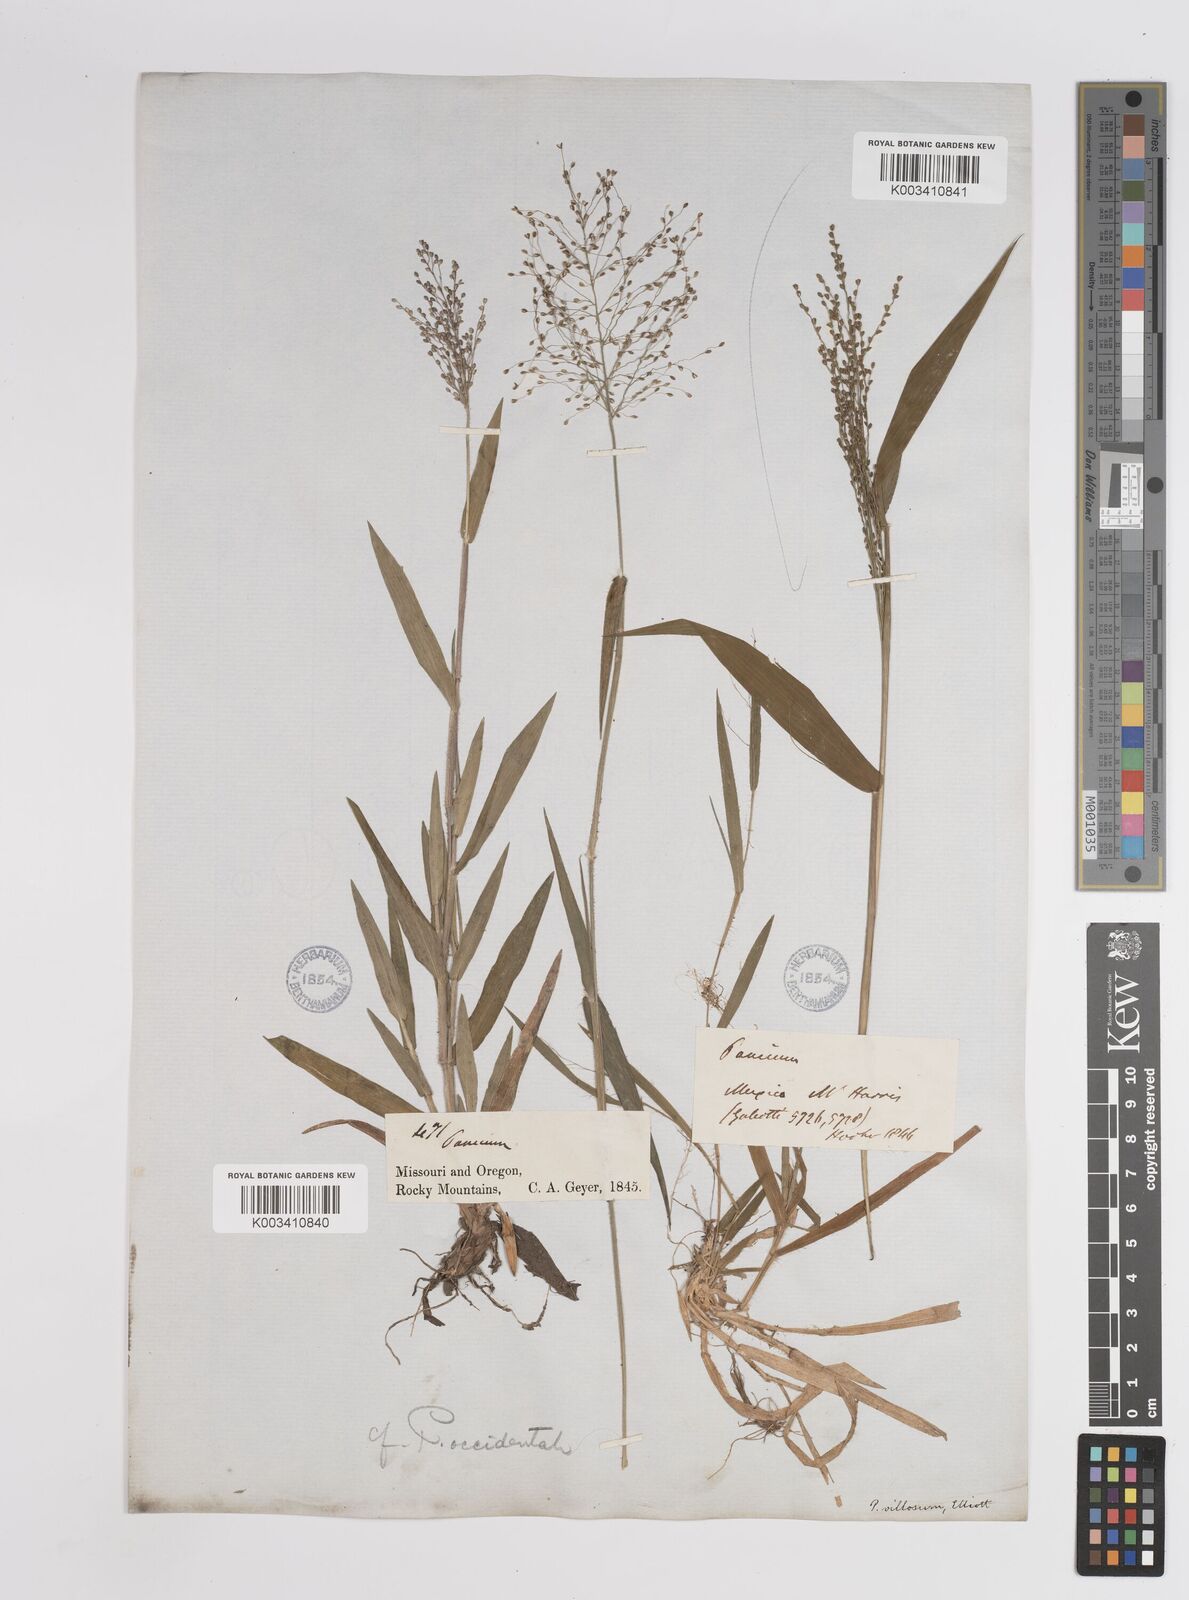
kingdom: Plantae
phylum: Tracheophyta
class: Liliopsida
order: Poales
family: Poaceae
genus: Dichanthelium
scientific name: Dichanthelium implicatum
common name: Slender-stemmed panicgrass
